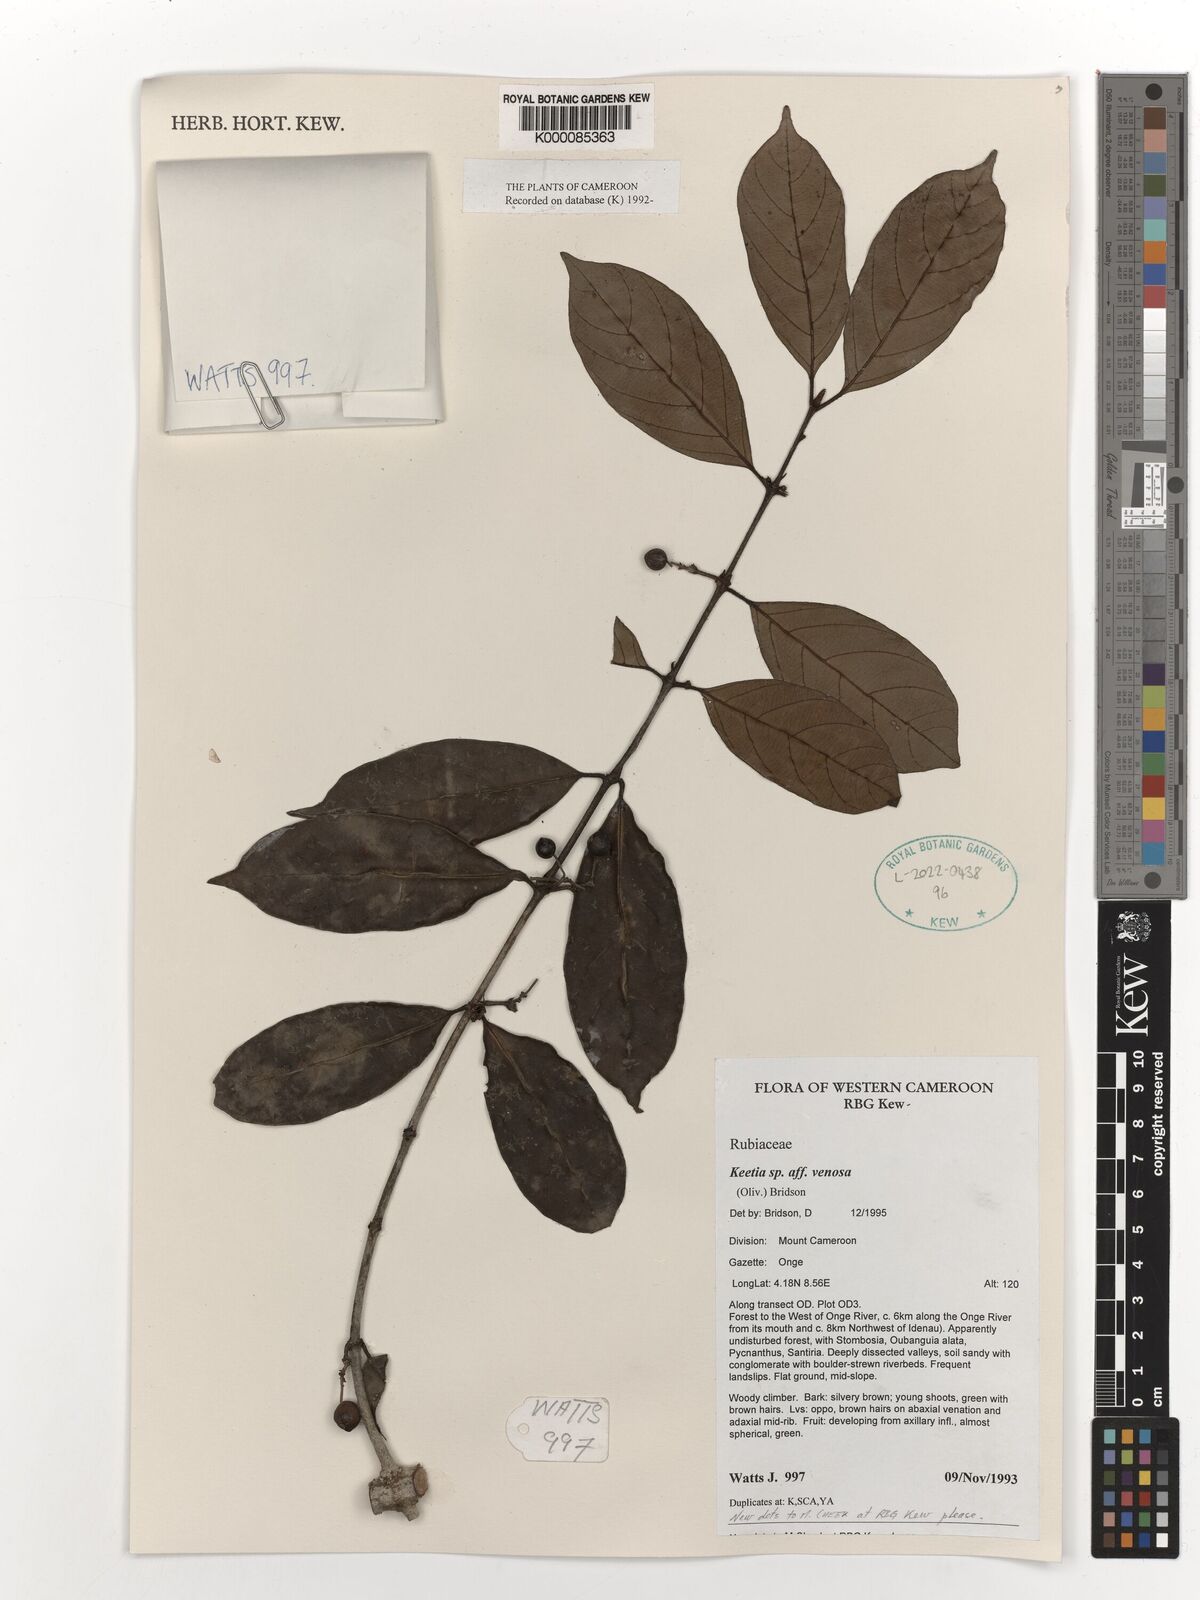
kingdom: Plantae
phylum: Tracheophyta
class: Magnoliopsida
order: Gentianales
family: Rubiaceae
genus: Keetia
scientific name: Keetia venosa
